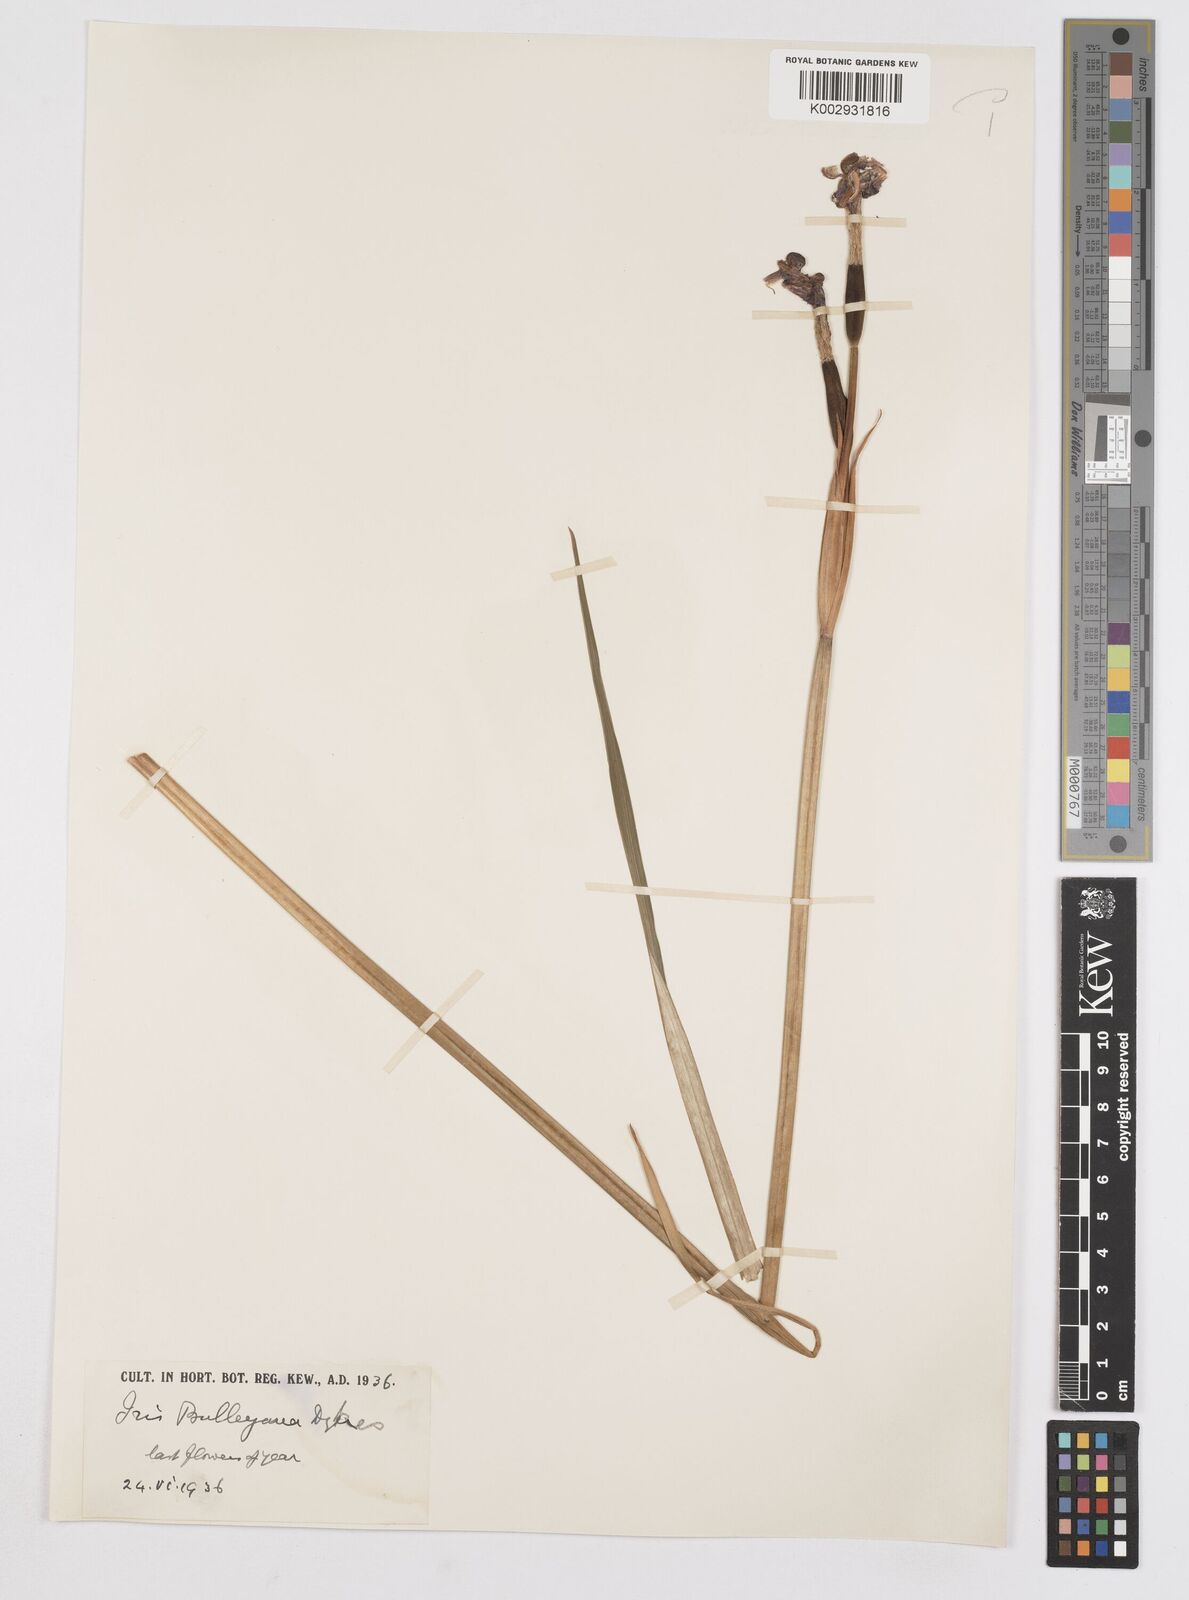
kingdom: Plantae
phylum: Tracheophyta
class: Liliopsida
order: Asparagales
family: Iridaceae
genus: Iris
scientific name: Iris clarkei
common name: Tibet iris
